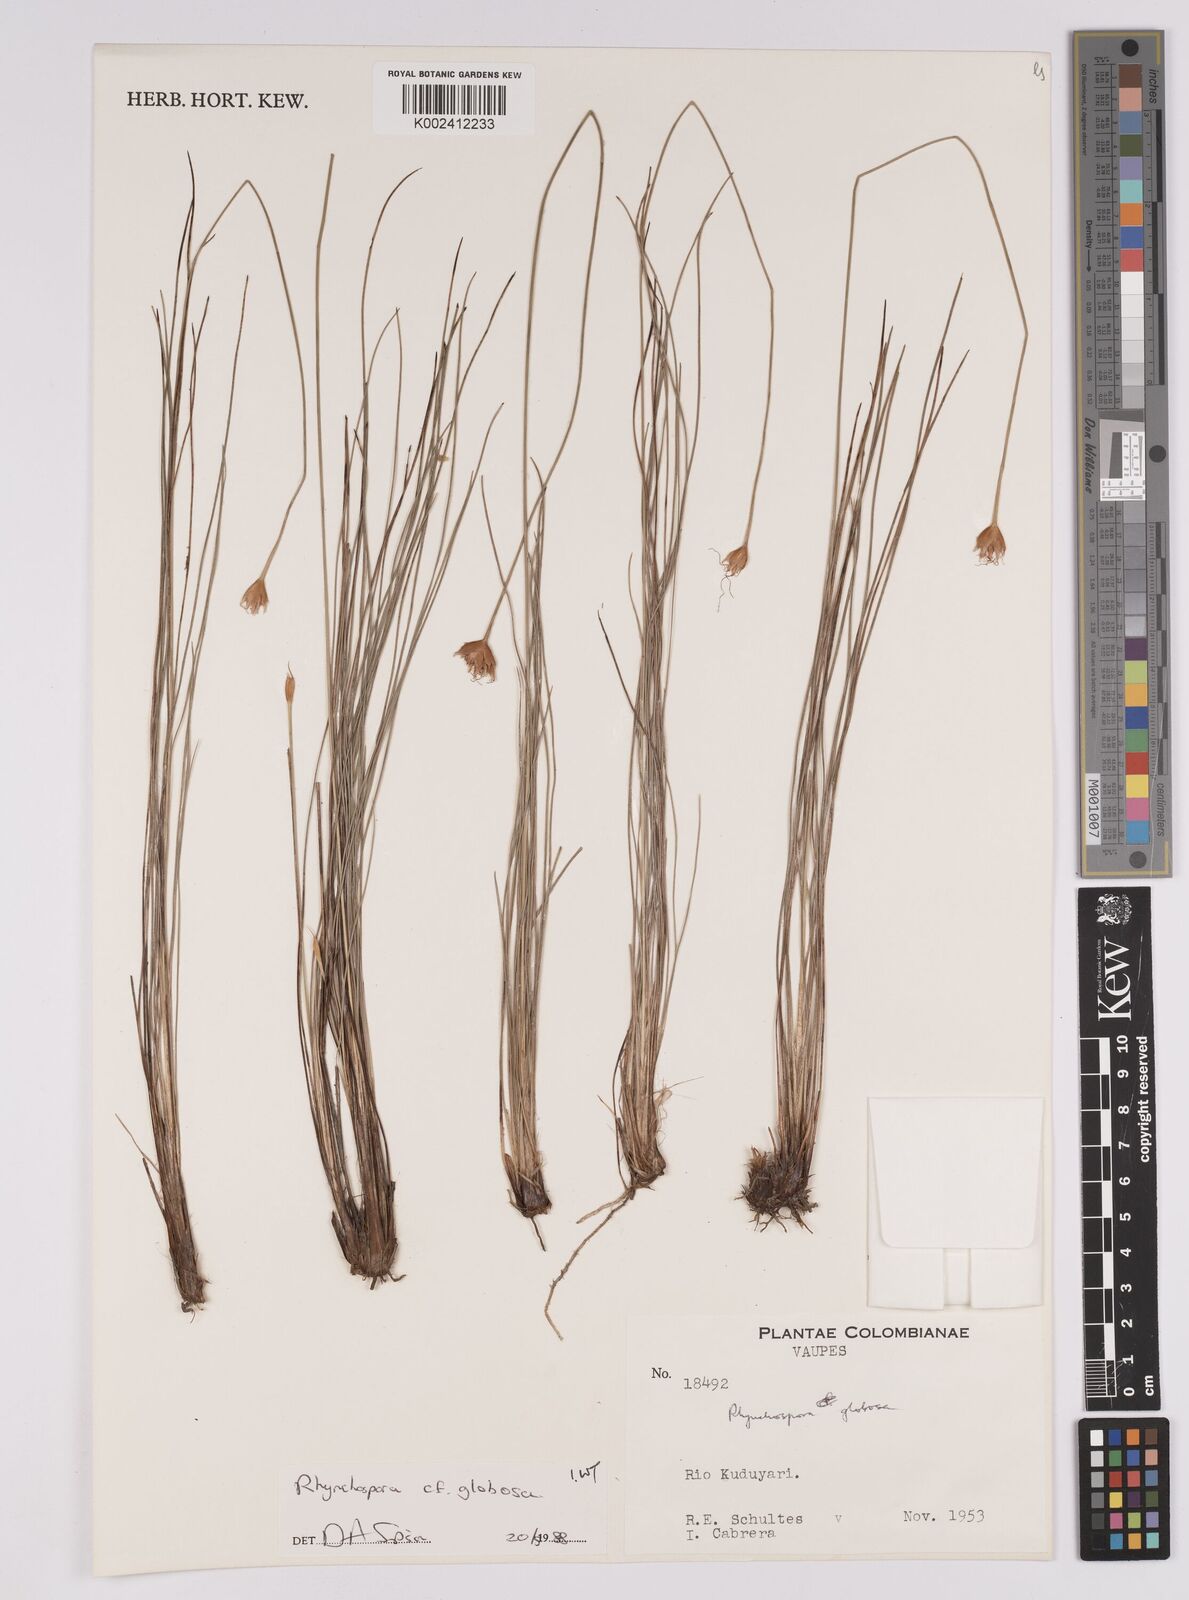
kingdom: Plantae
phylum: Tracheophyta
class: Liliopsida
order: Poales
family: Cyperaceae
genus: Rhynchospora
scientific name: Rhynchospora globosa
